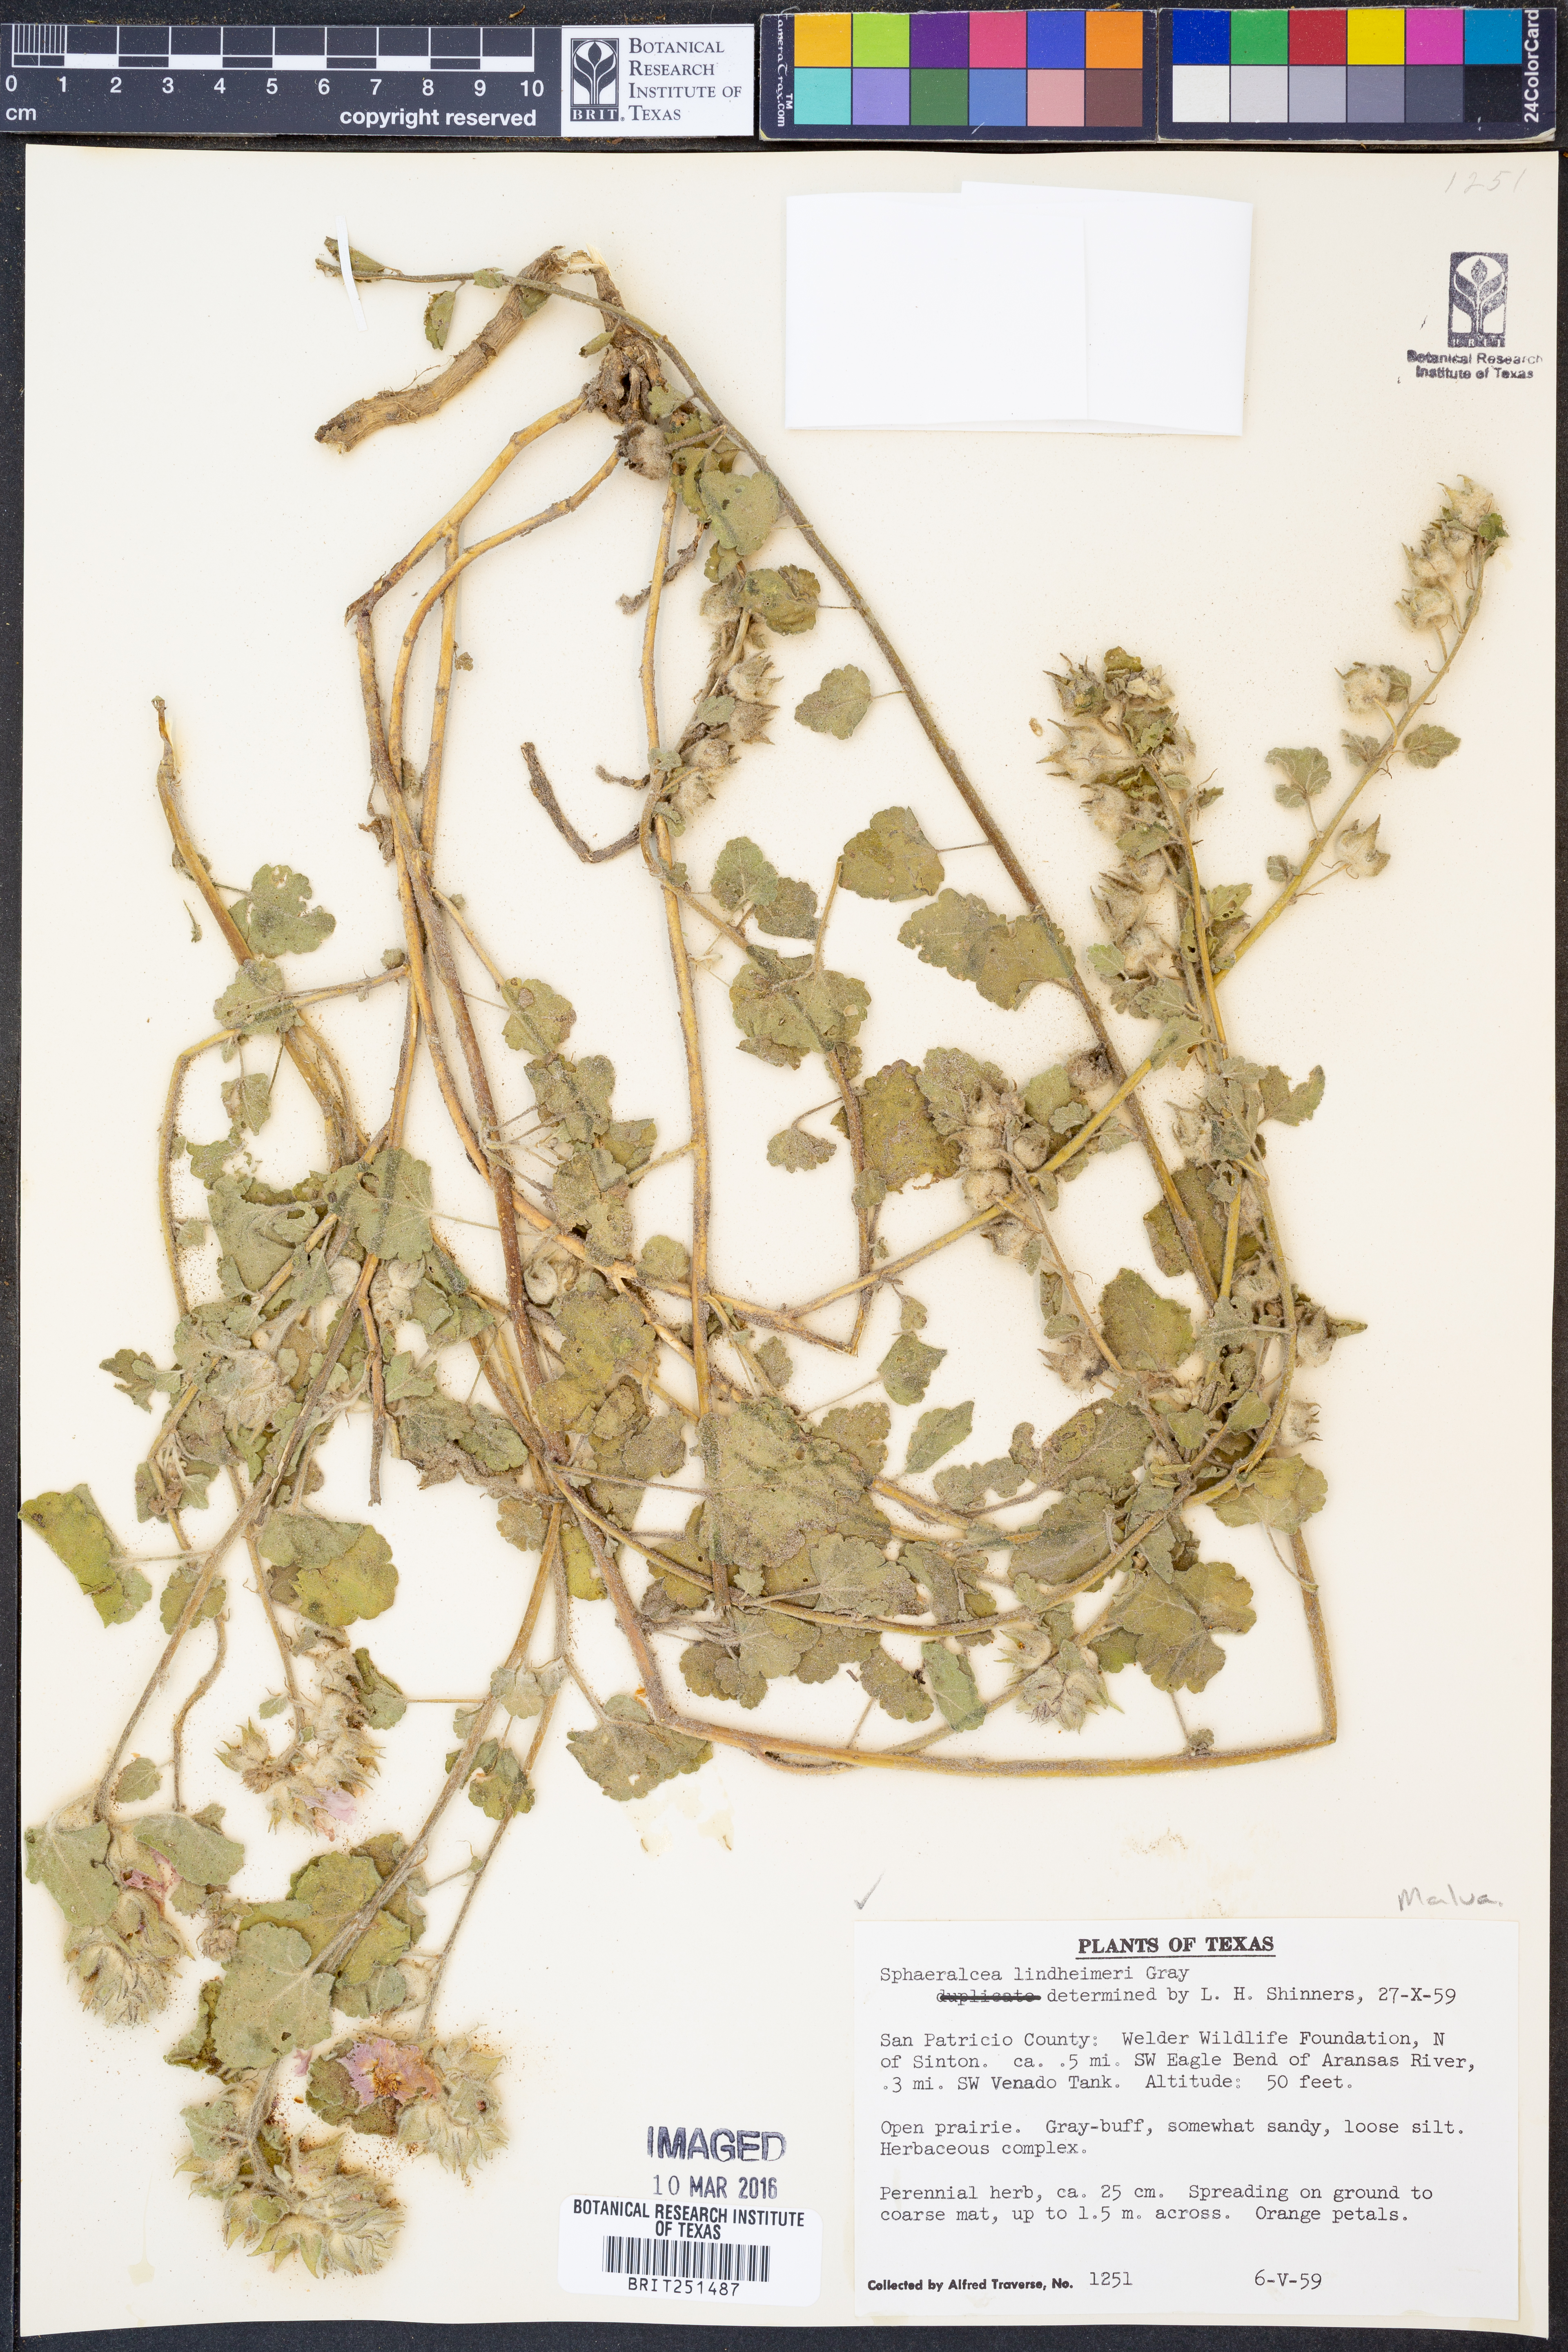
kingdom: Plantae
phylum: Tracheophyta
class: Magnoliopsida
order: Malvales
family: Malvaceae
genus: Sphaeralcea
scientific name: Sphaeralcea lindheimeri
